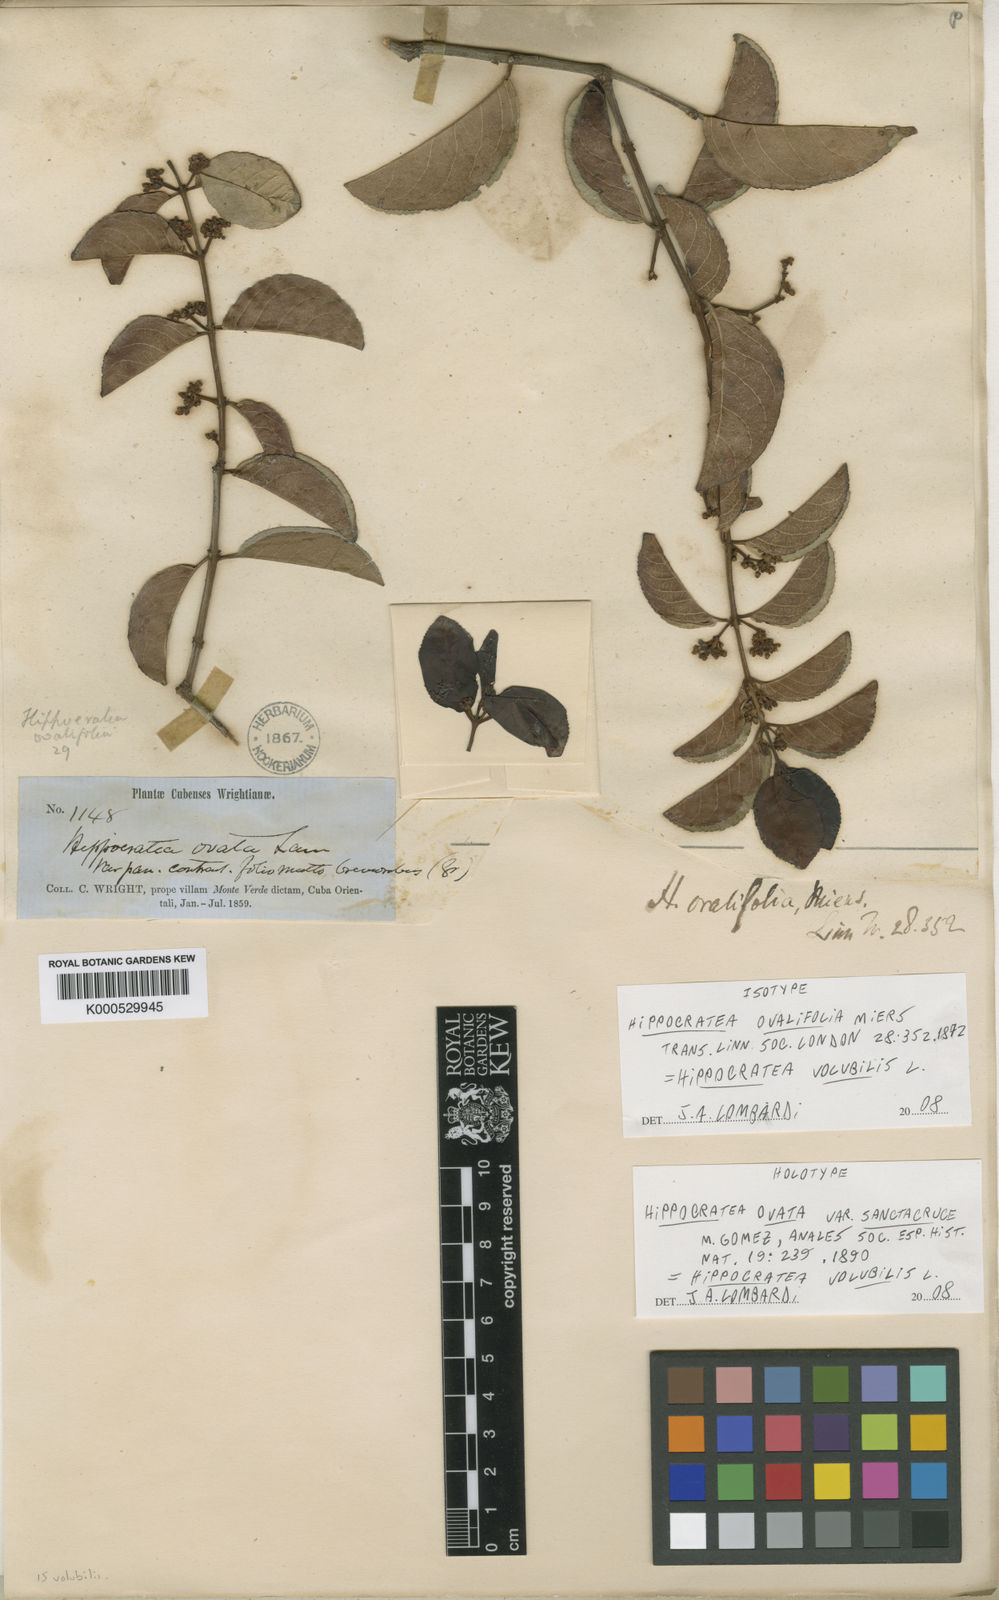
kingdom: Plantae
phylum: Tracheophyta
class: Magnoliopsida
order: Celastrales
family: Celastraceae
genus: Hippocratea
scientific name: Hippocratea volubilis
